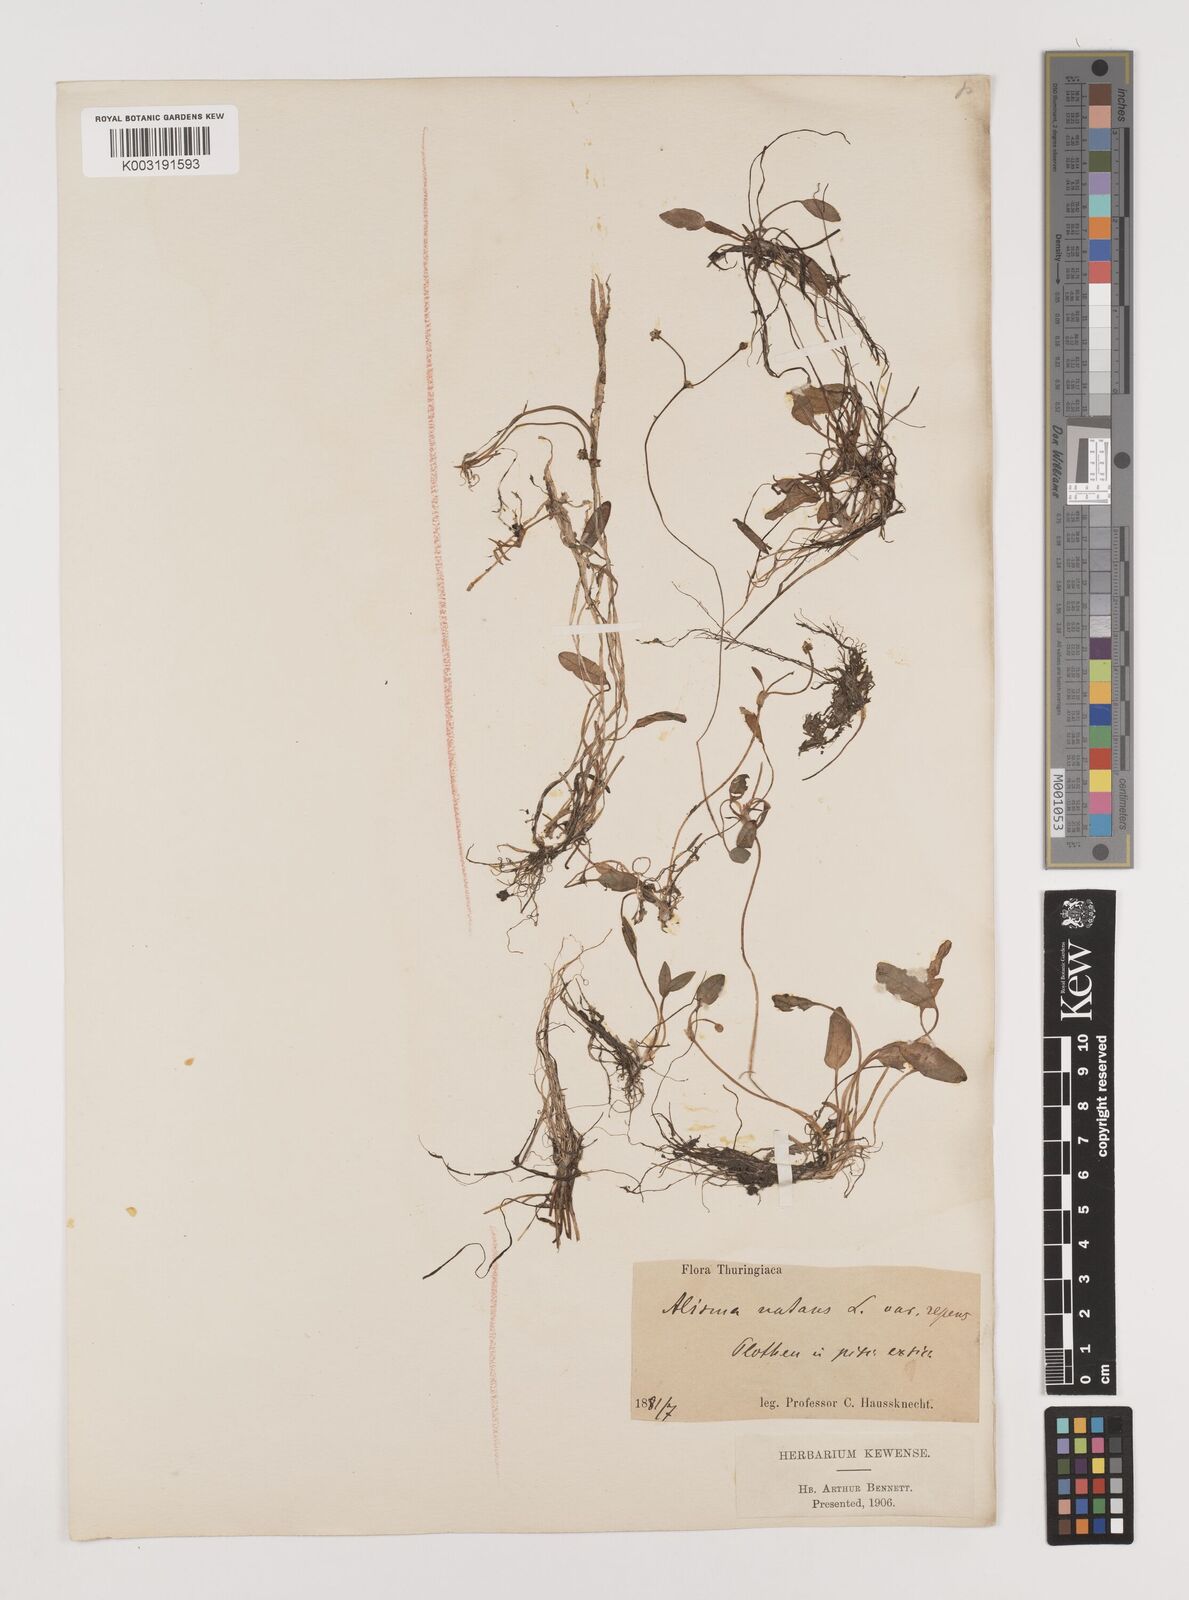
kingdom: Plantae
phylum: Tracheophyta
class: Liliopsida
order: Alismatales
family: Alismataceae
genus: Luronium
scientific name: Luronium natans
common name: Floating water-plantain
